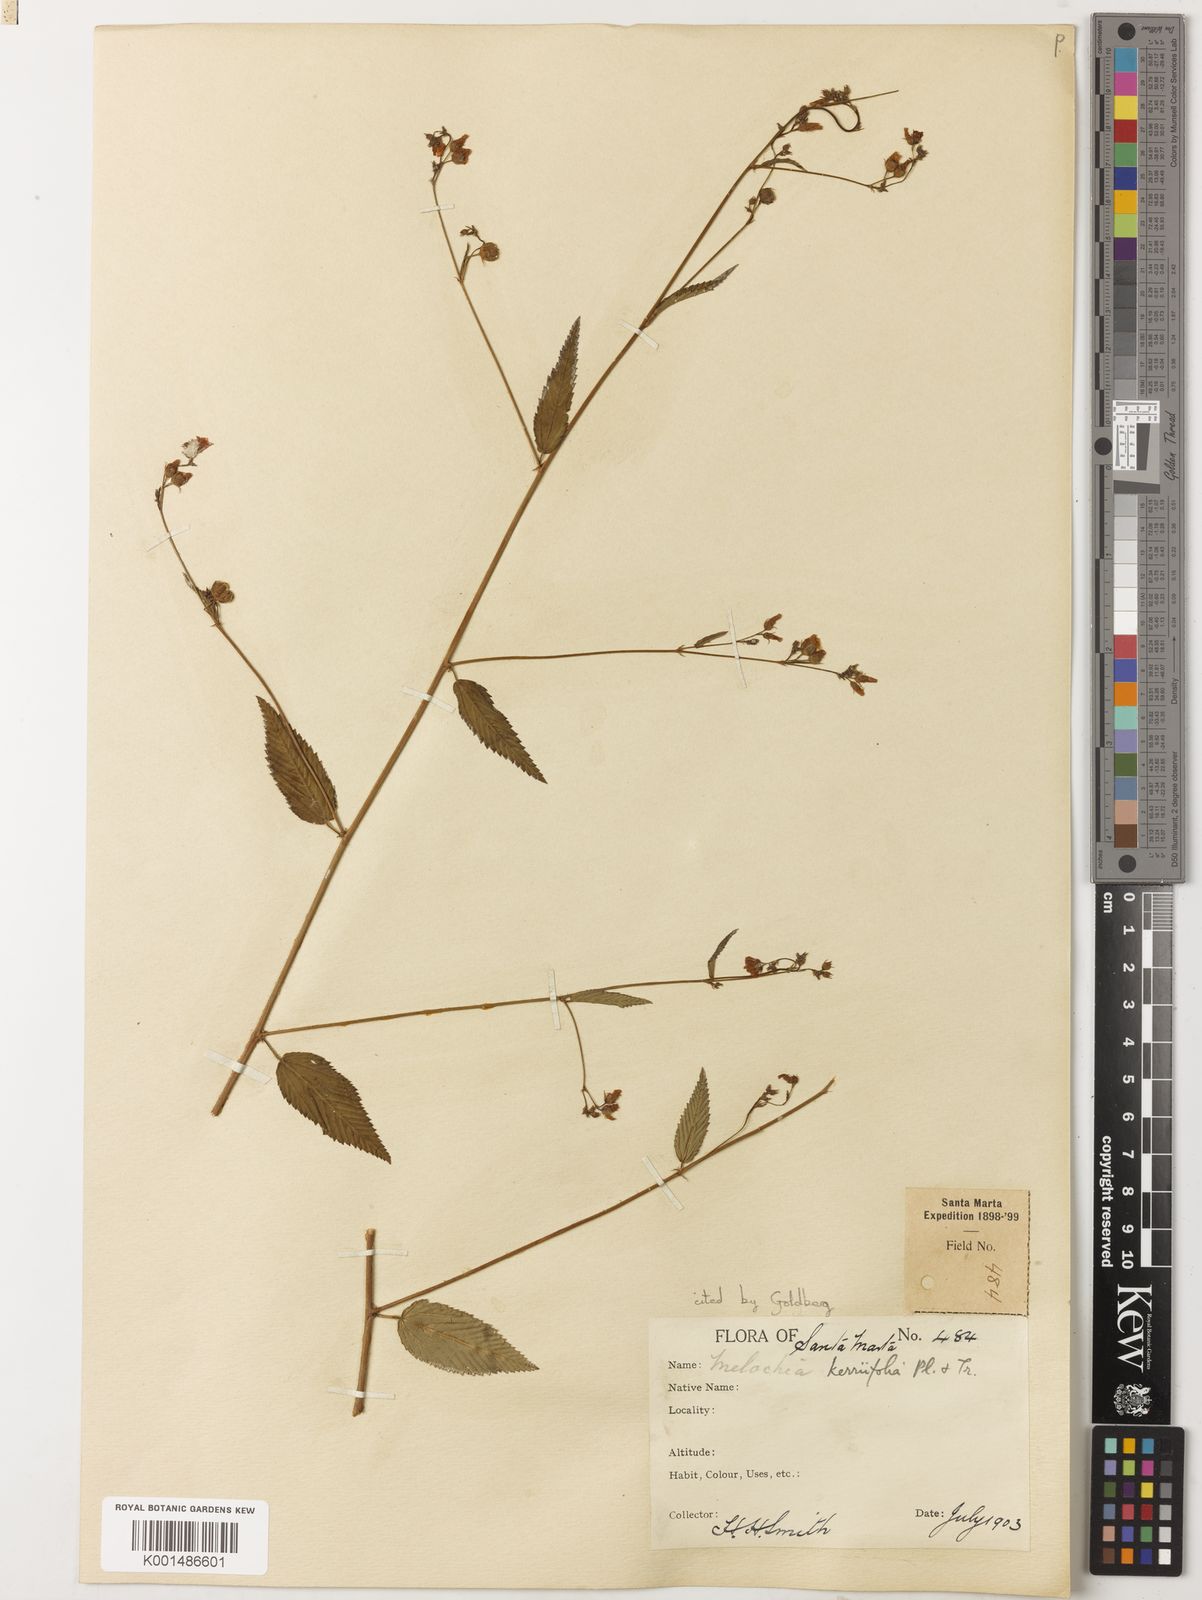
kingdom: Plantae
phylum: Tracheophyta
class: Magnoliopsida
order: Malvales
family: Malvaceae
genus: Melochia
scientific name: Melochia kerriifolia
